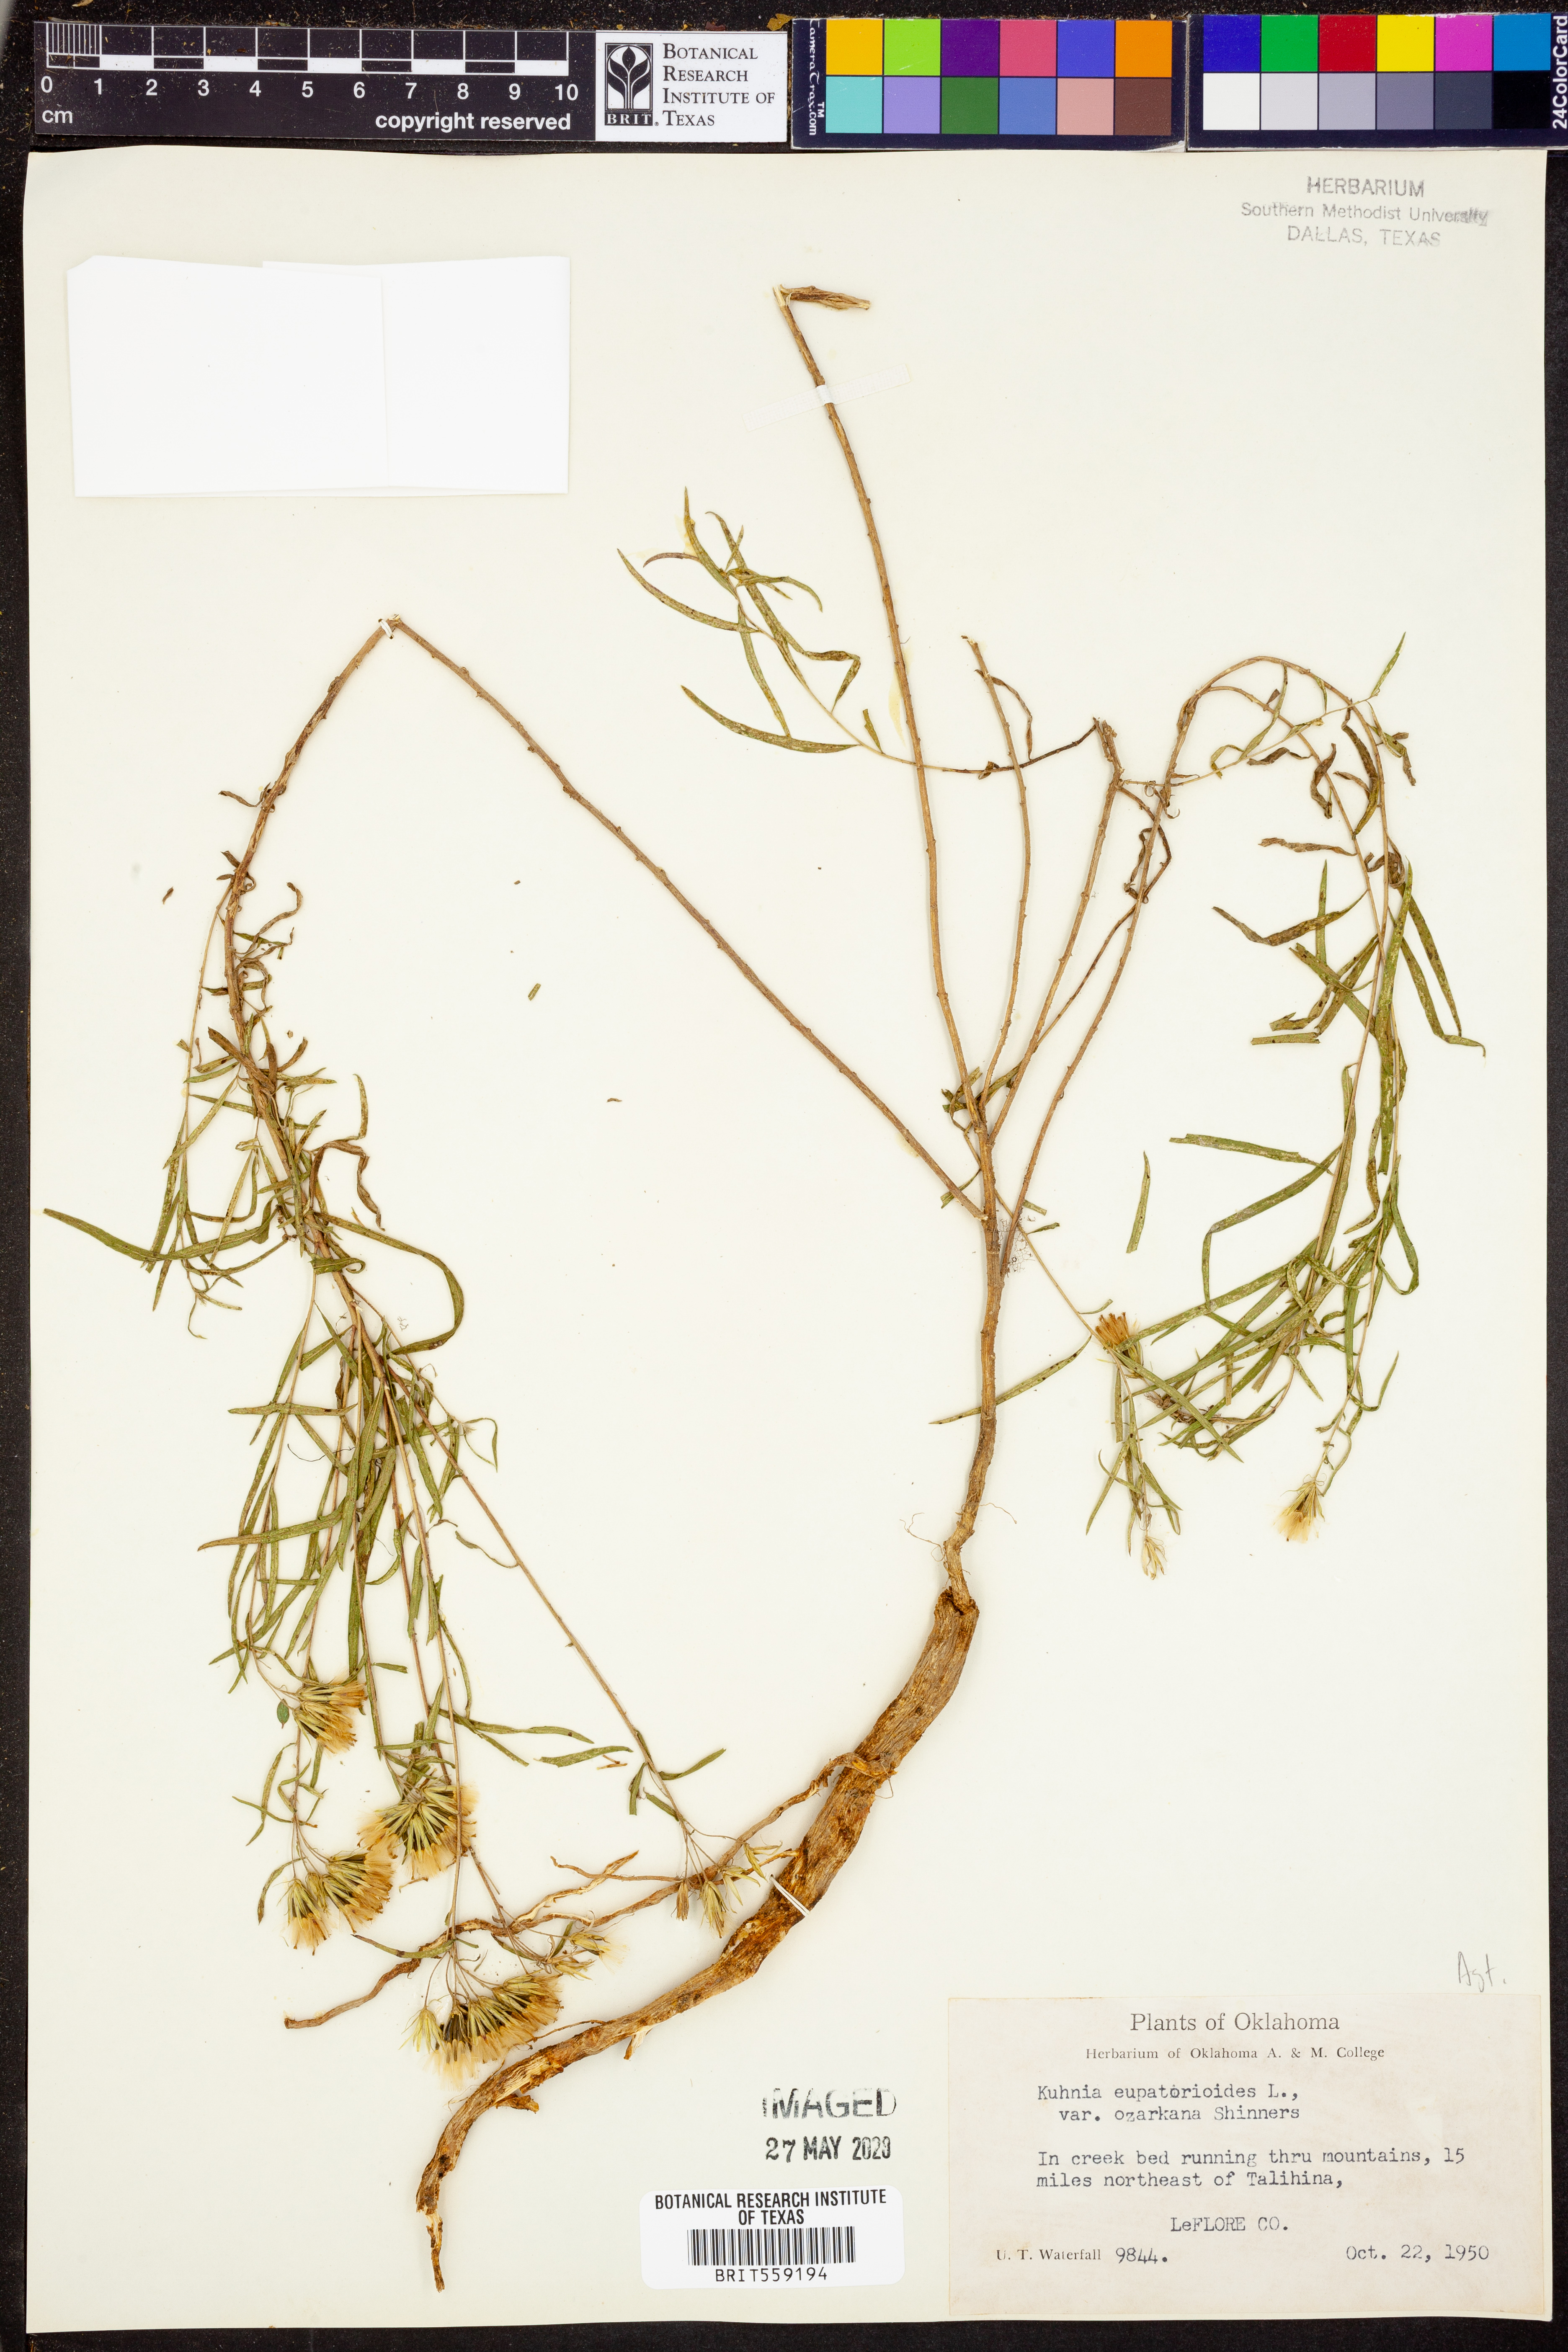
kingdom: Plantae
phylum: Tracheophyta
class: Magnoliopsida
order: Asterales
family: Asteraceae
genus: Brickellia
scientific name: Brickellia ozarkana
